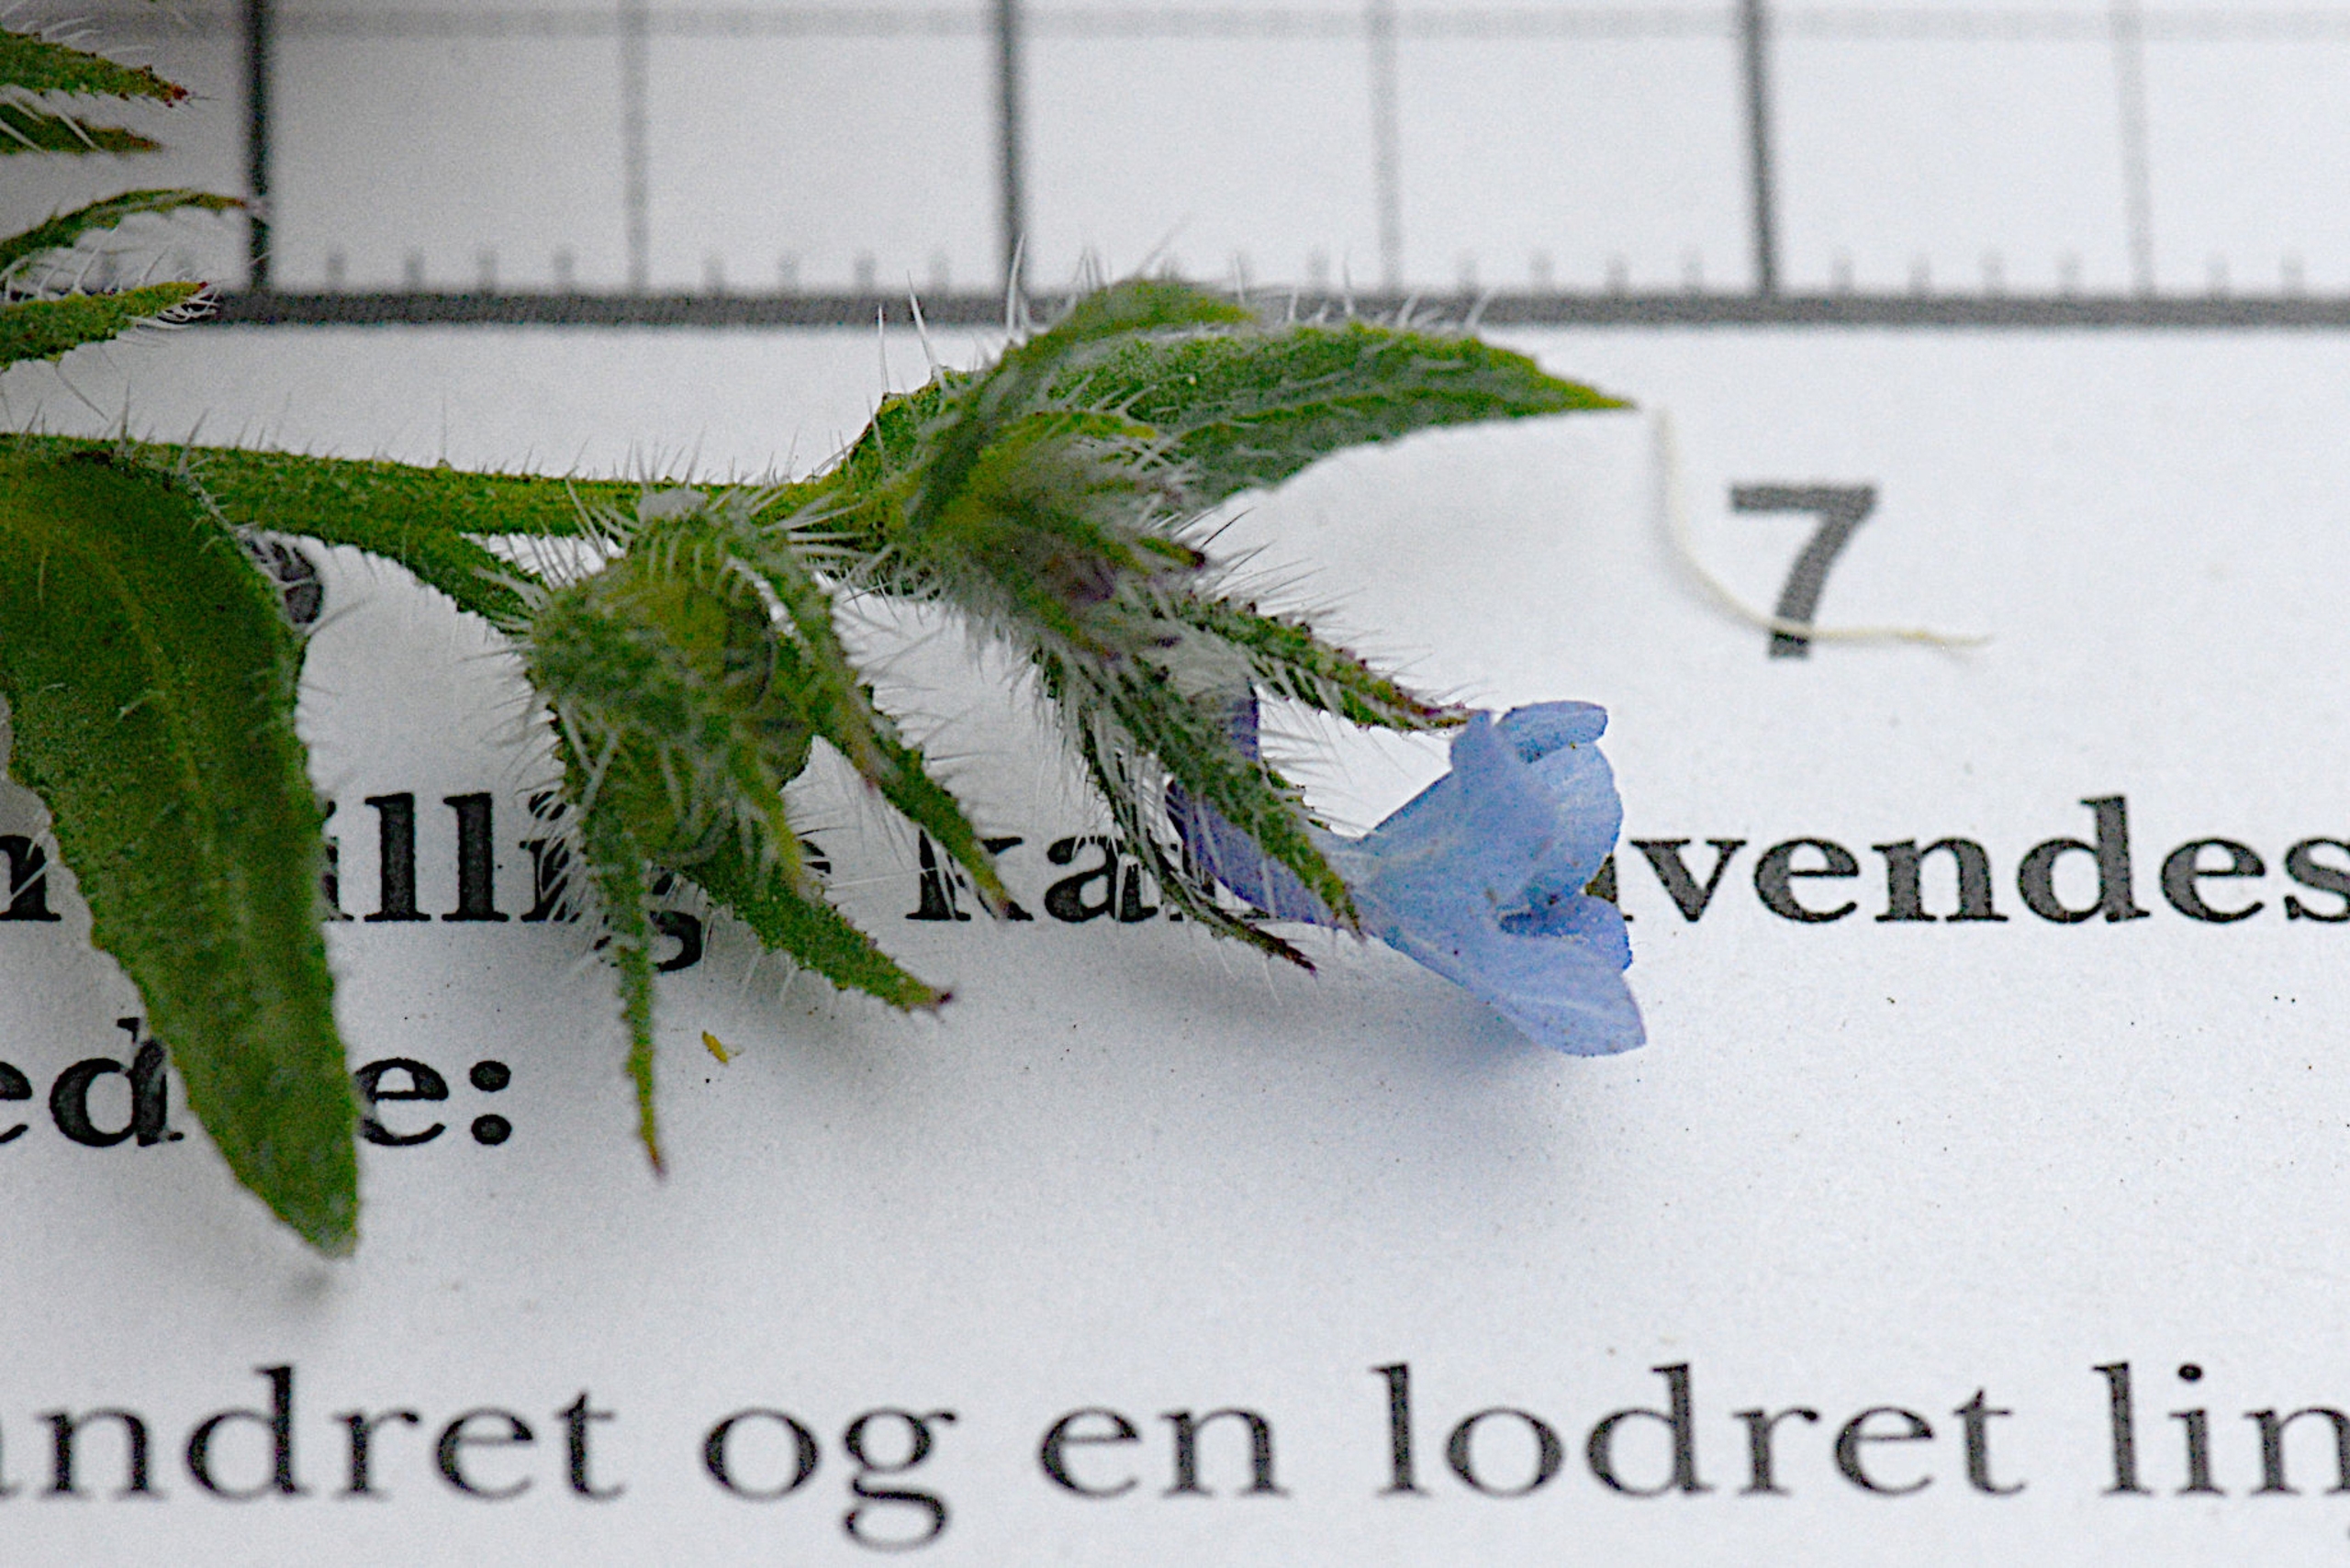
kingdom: Plantae
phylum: Tracheophyta
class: Magnoliopsida
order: Boraginales
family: Boraginaceae
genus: Lycopsis
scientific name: Lycopsis arvensis
